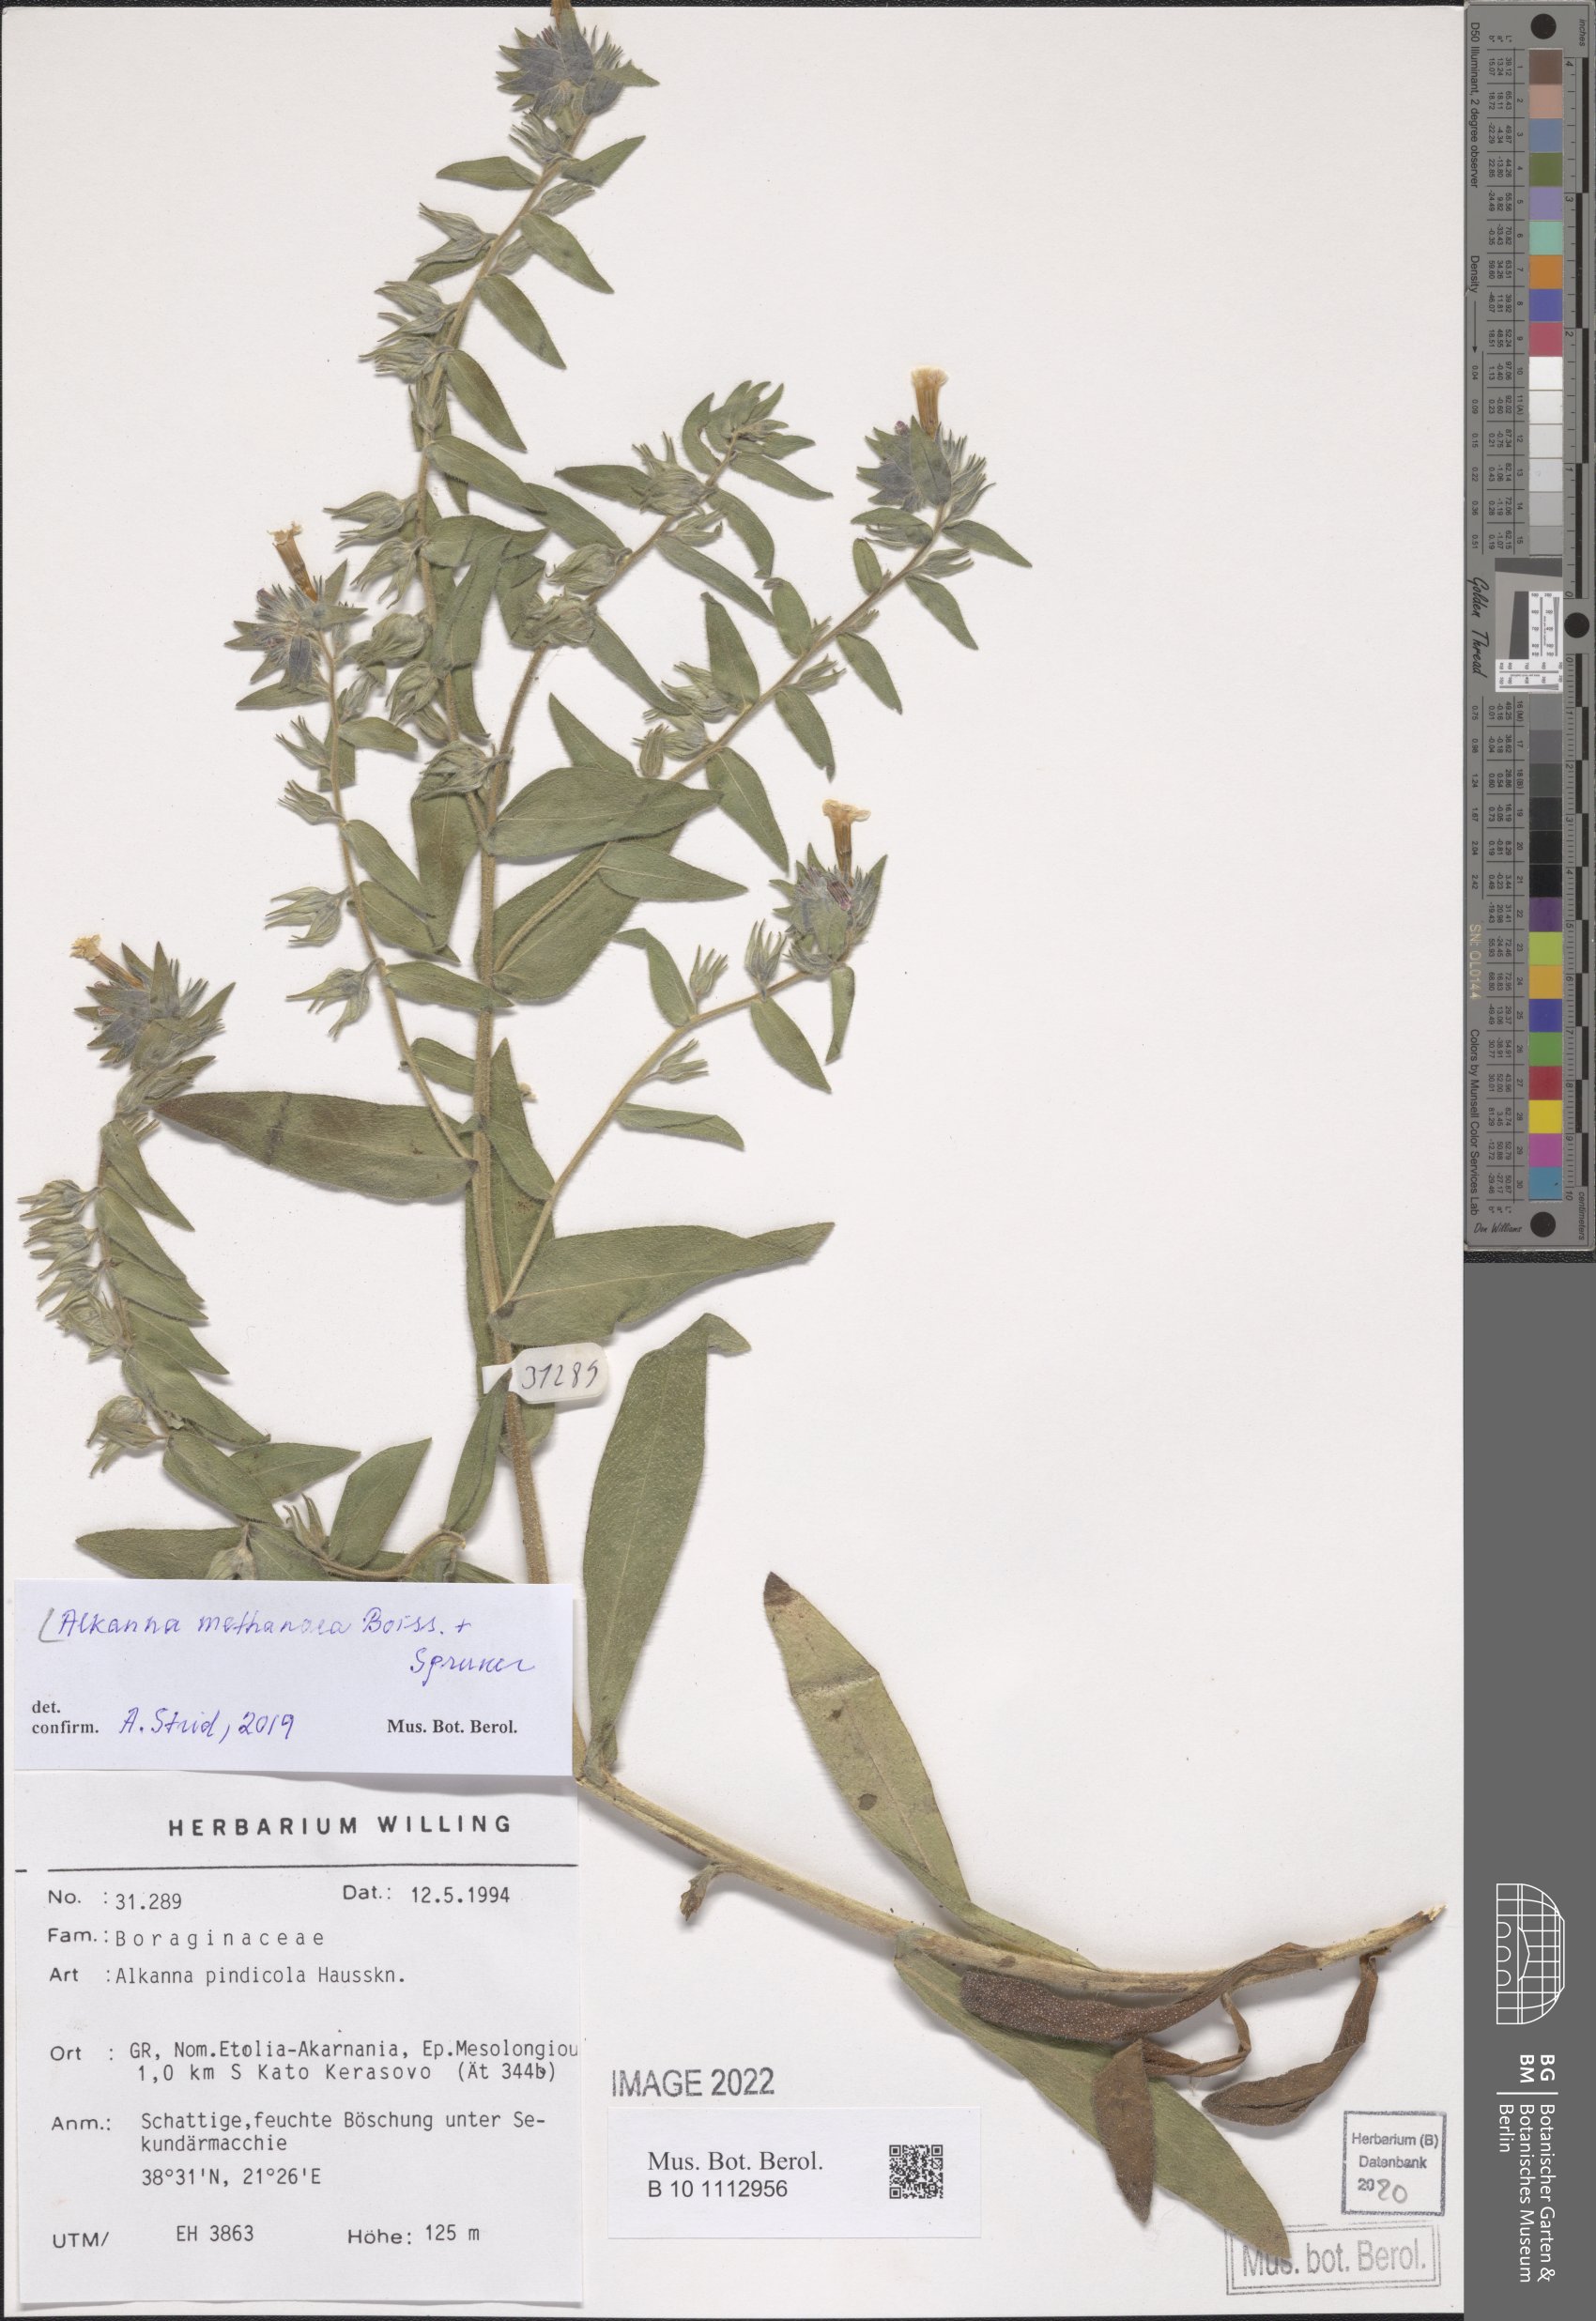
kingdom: Plantae
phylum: Tracheophyta
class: Magnoliopsida
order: Boraginales
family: Boraginaceae
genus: Alkanna
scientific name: Alkanna methanaea
